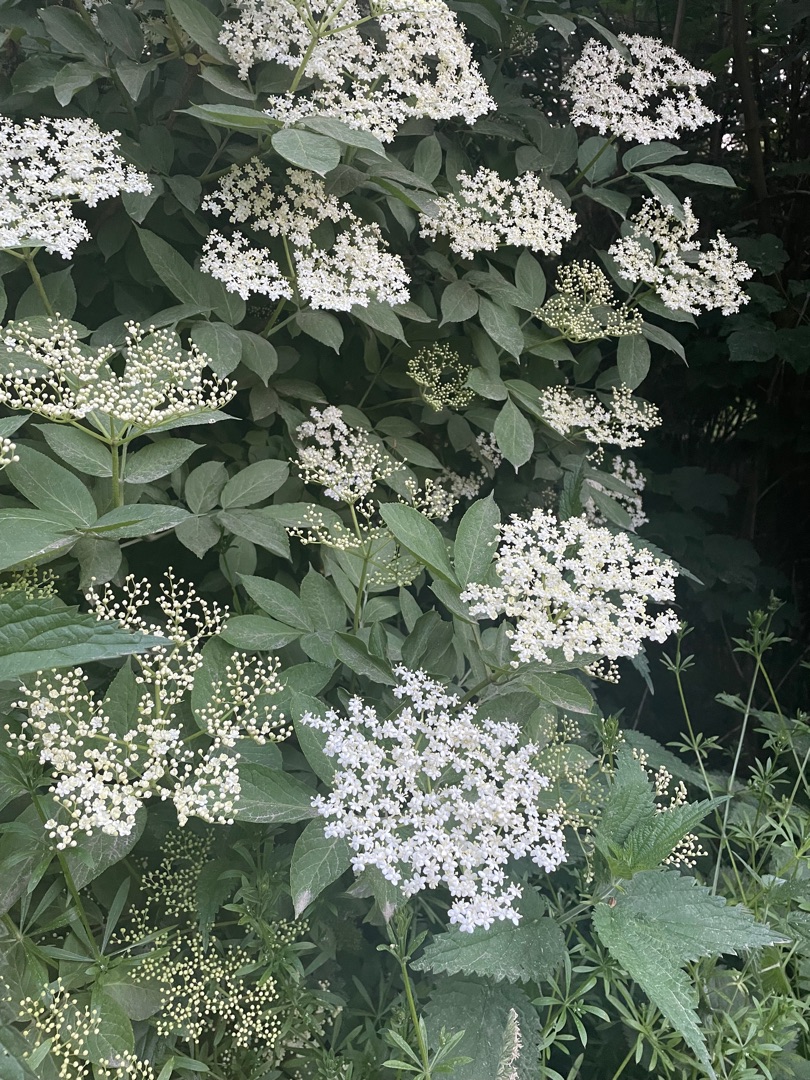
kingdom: Plantae
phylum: Tracheophyta
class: Magnoliopsida
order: Dipsacales
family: Viburnaceae
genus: Sambucus
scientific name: Sambucus nigra
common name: Almindelig hyld
